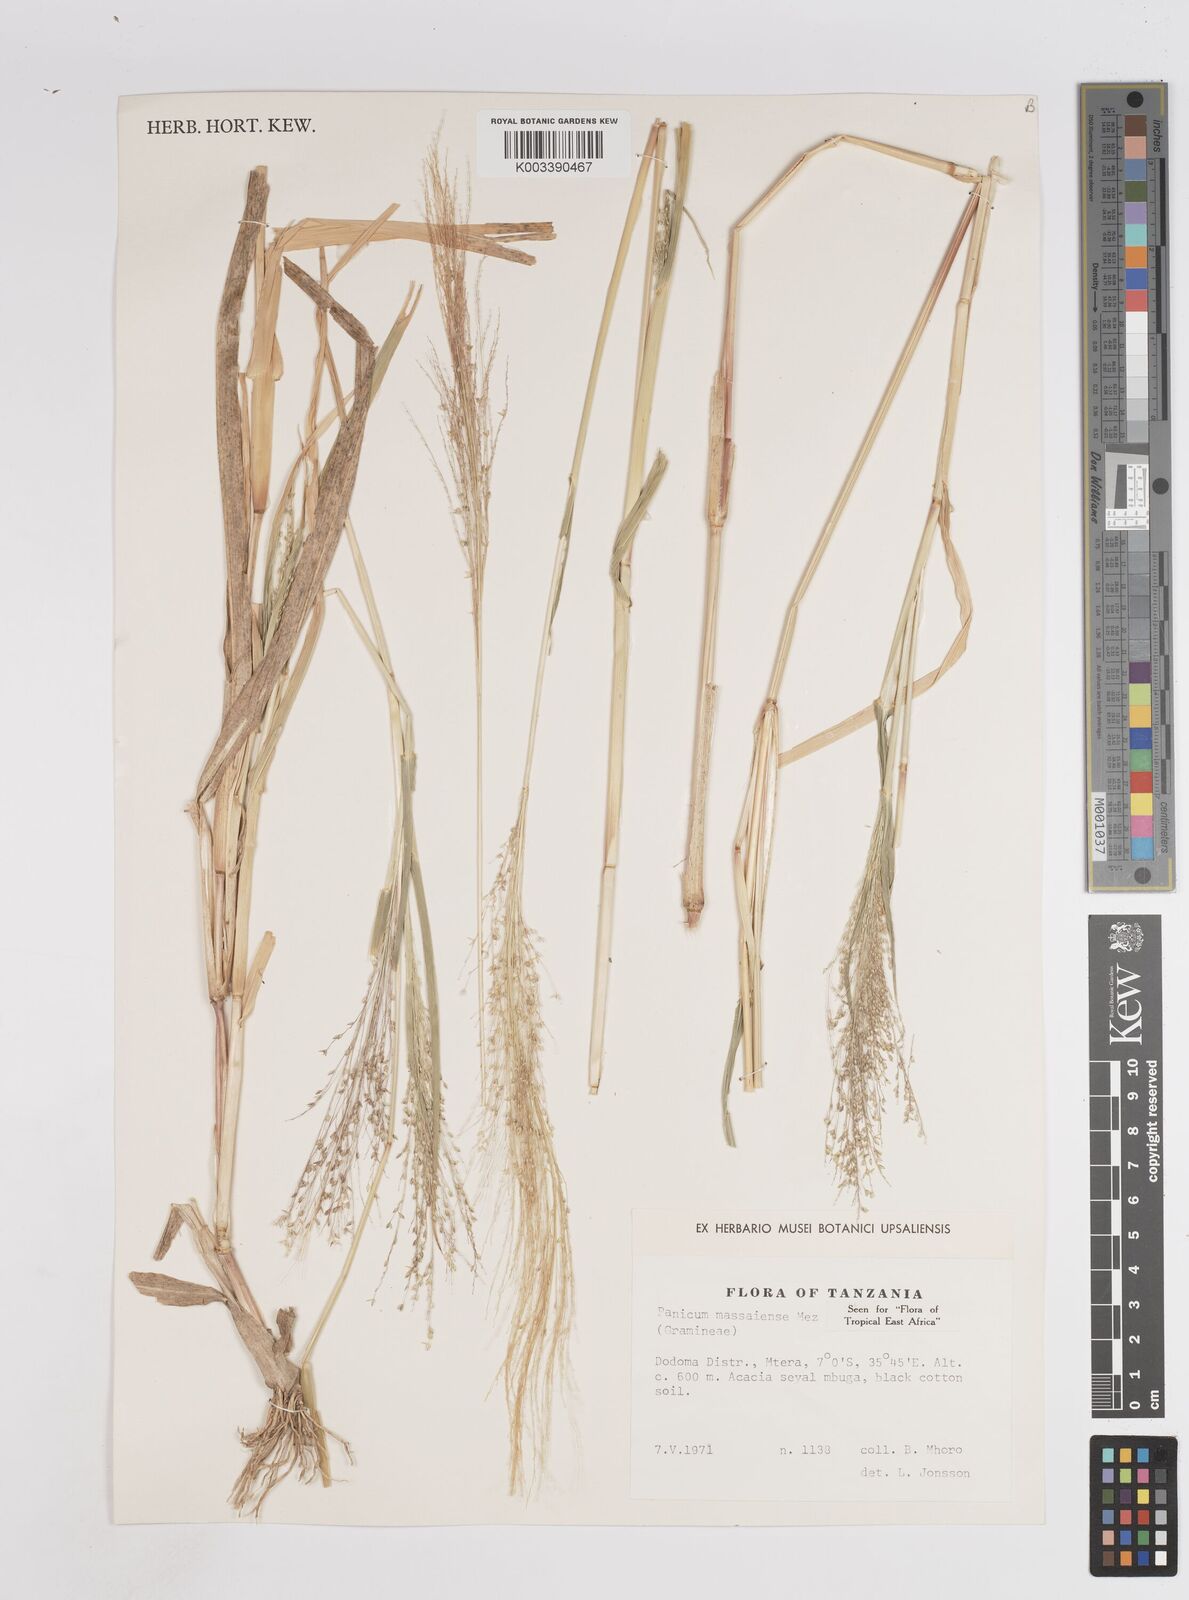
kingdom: Plantae
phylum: Tracheophyta
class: Liliopsida
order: Poales
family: Poaceae
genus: Panicum
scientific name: Panicum massaiense
